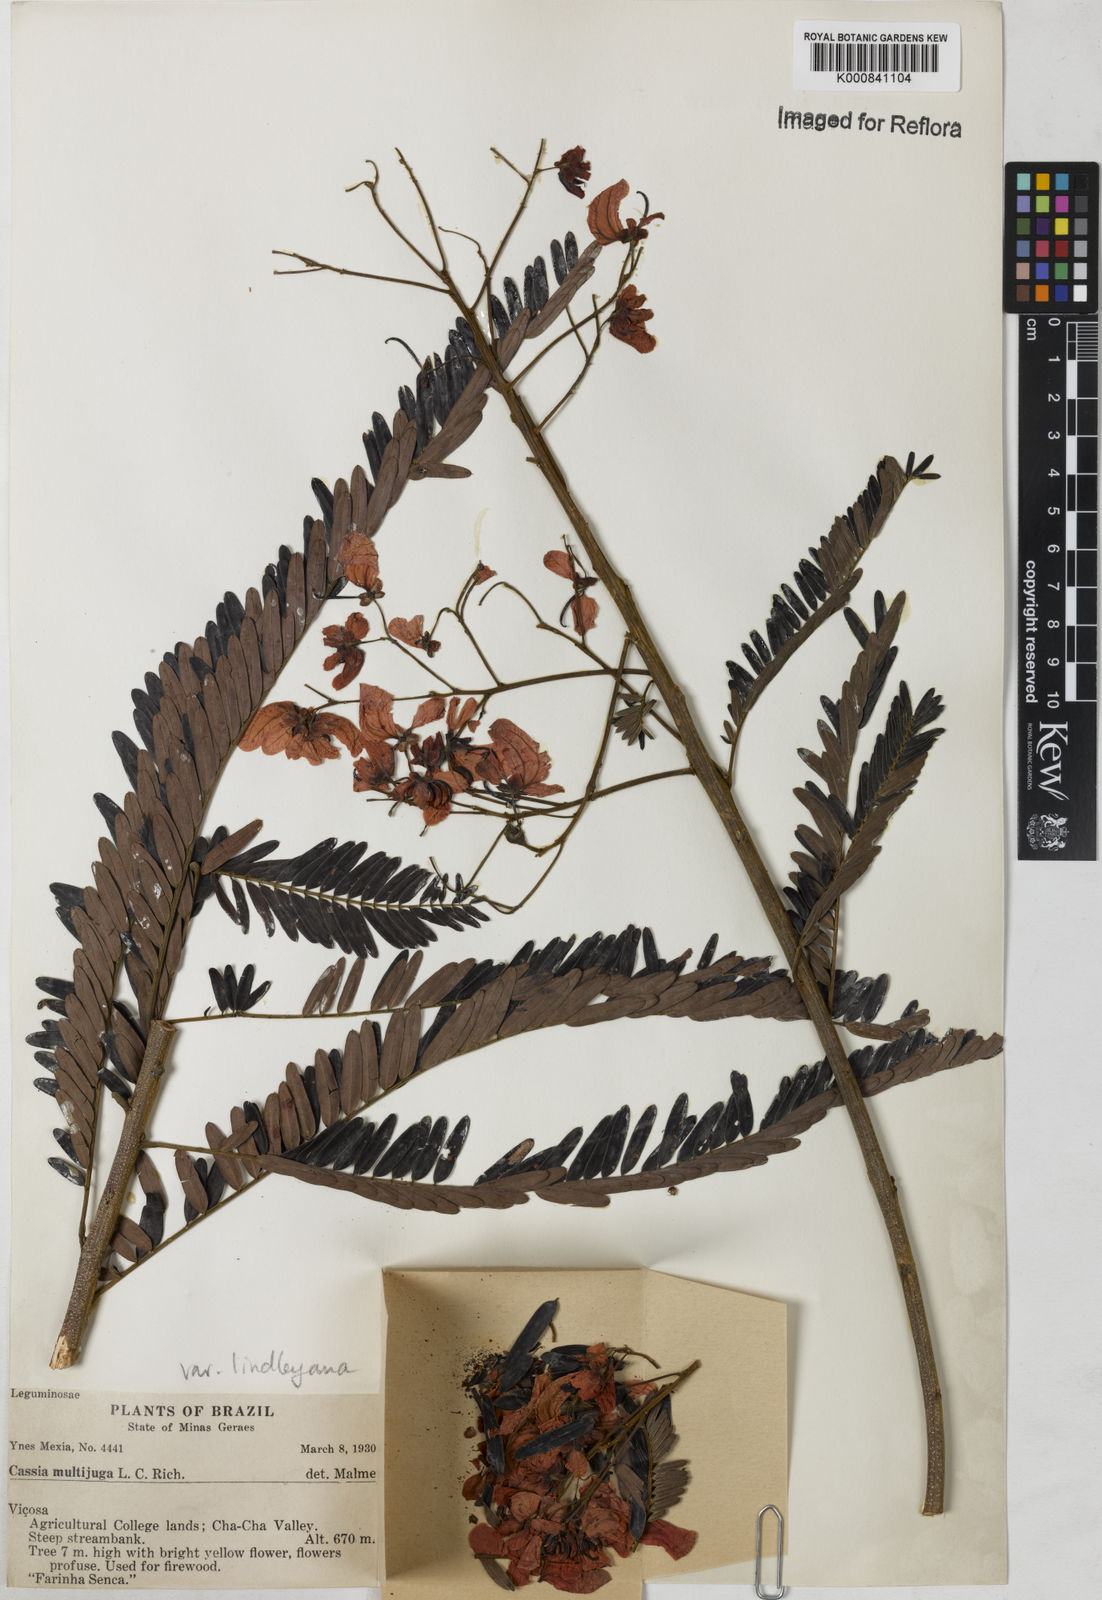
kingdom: Plantae
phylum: Tracheophyta
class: Magnoliopsida
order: Fabales
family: Fabaceae
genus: Senna
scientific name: Senna multijuga
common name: False sicklepod
